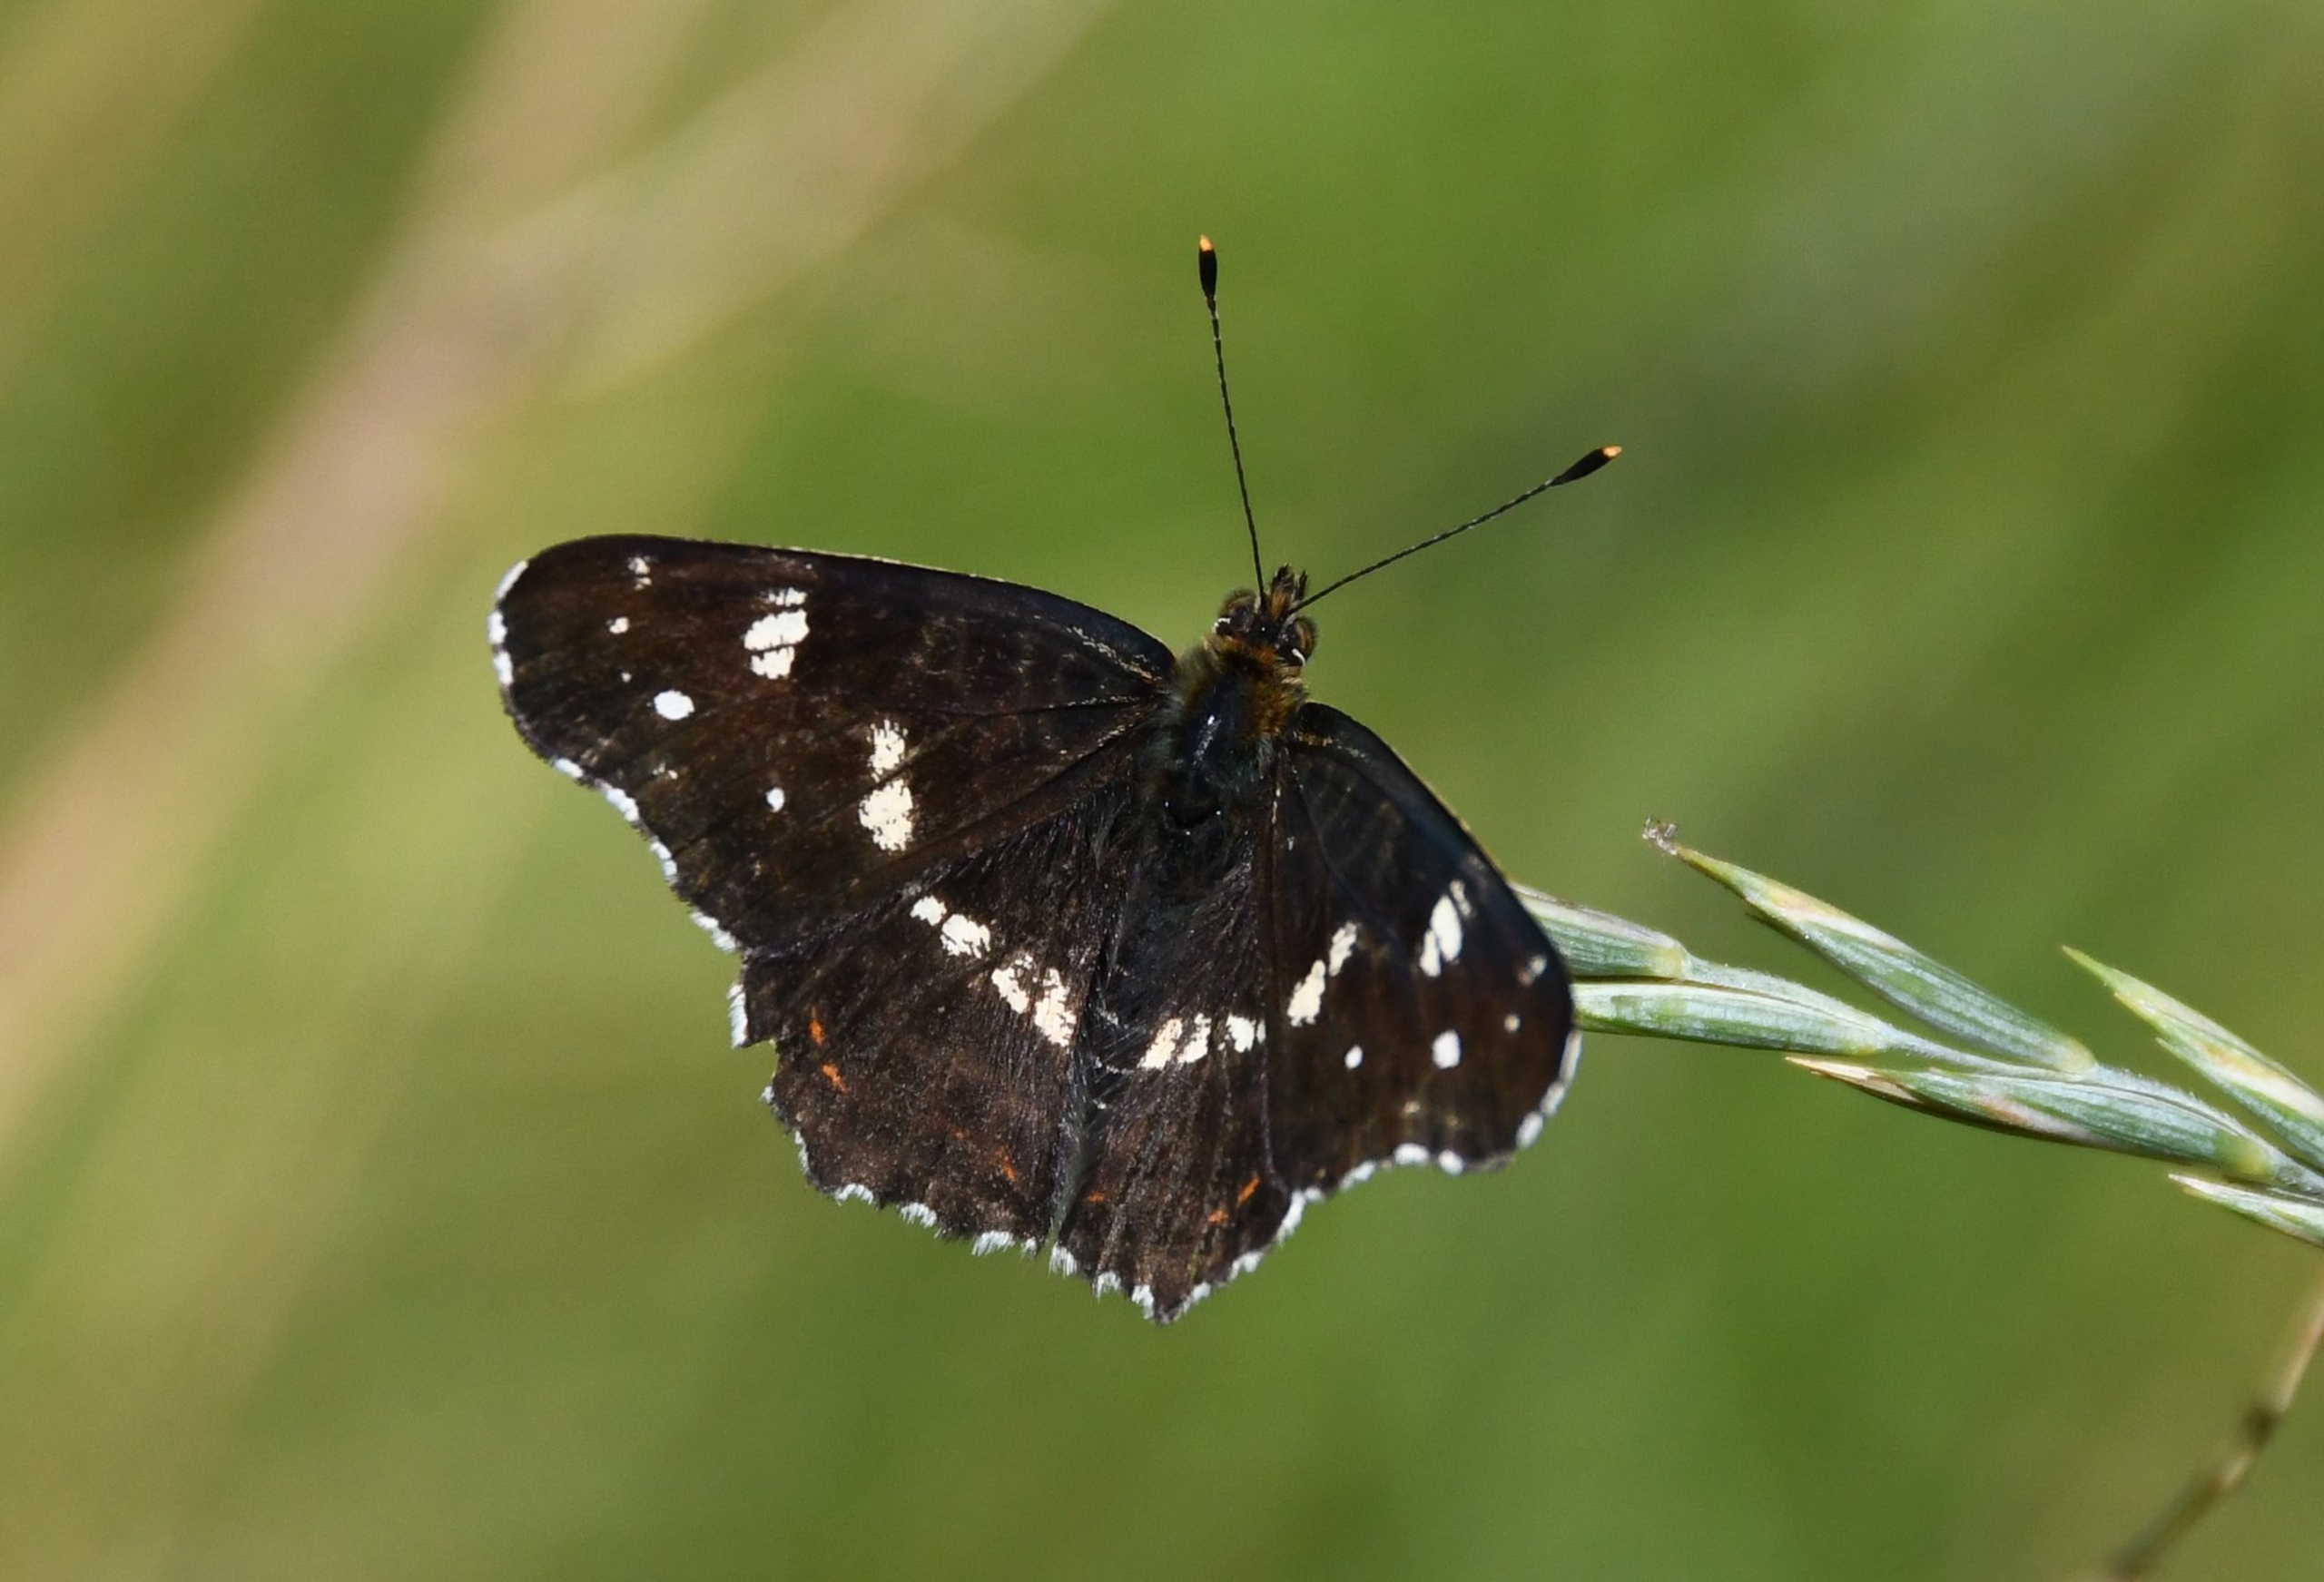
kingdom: Animalia
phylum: Arthropoda
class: Insecta
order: Lepidoptera
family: Nymphalidae
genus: Araschnia
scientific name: Araschnia levana
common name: Nældesommerfugl
